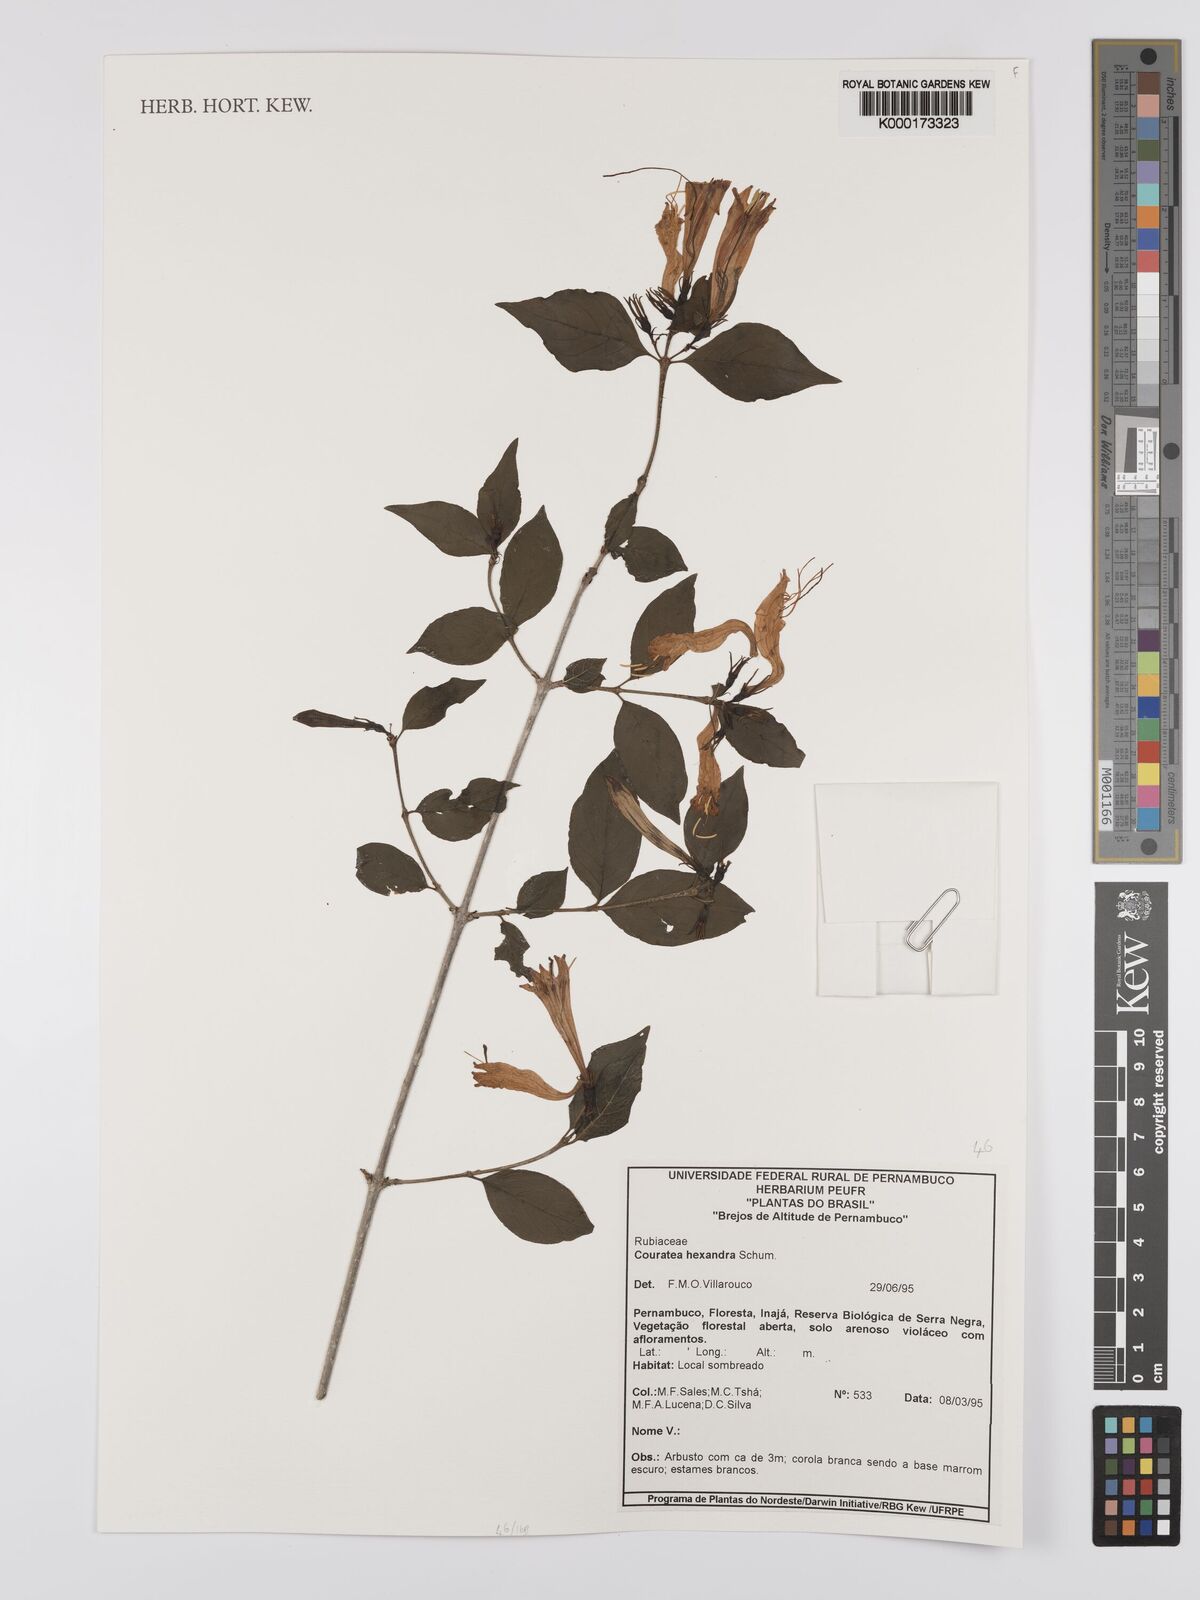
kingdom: Plantae
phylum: Tracheophyta
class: Magnoliopsida
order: Gentianales
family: Rubiaceae
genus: Coutarea
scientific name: Coutarea hexandra
